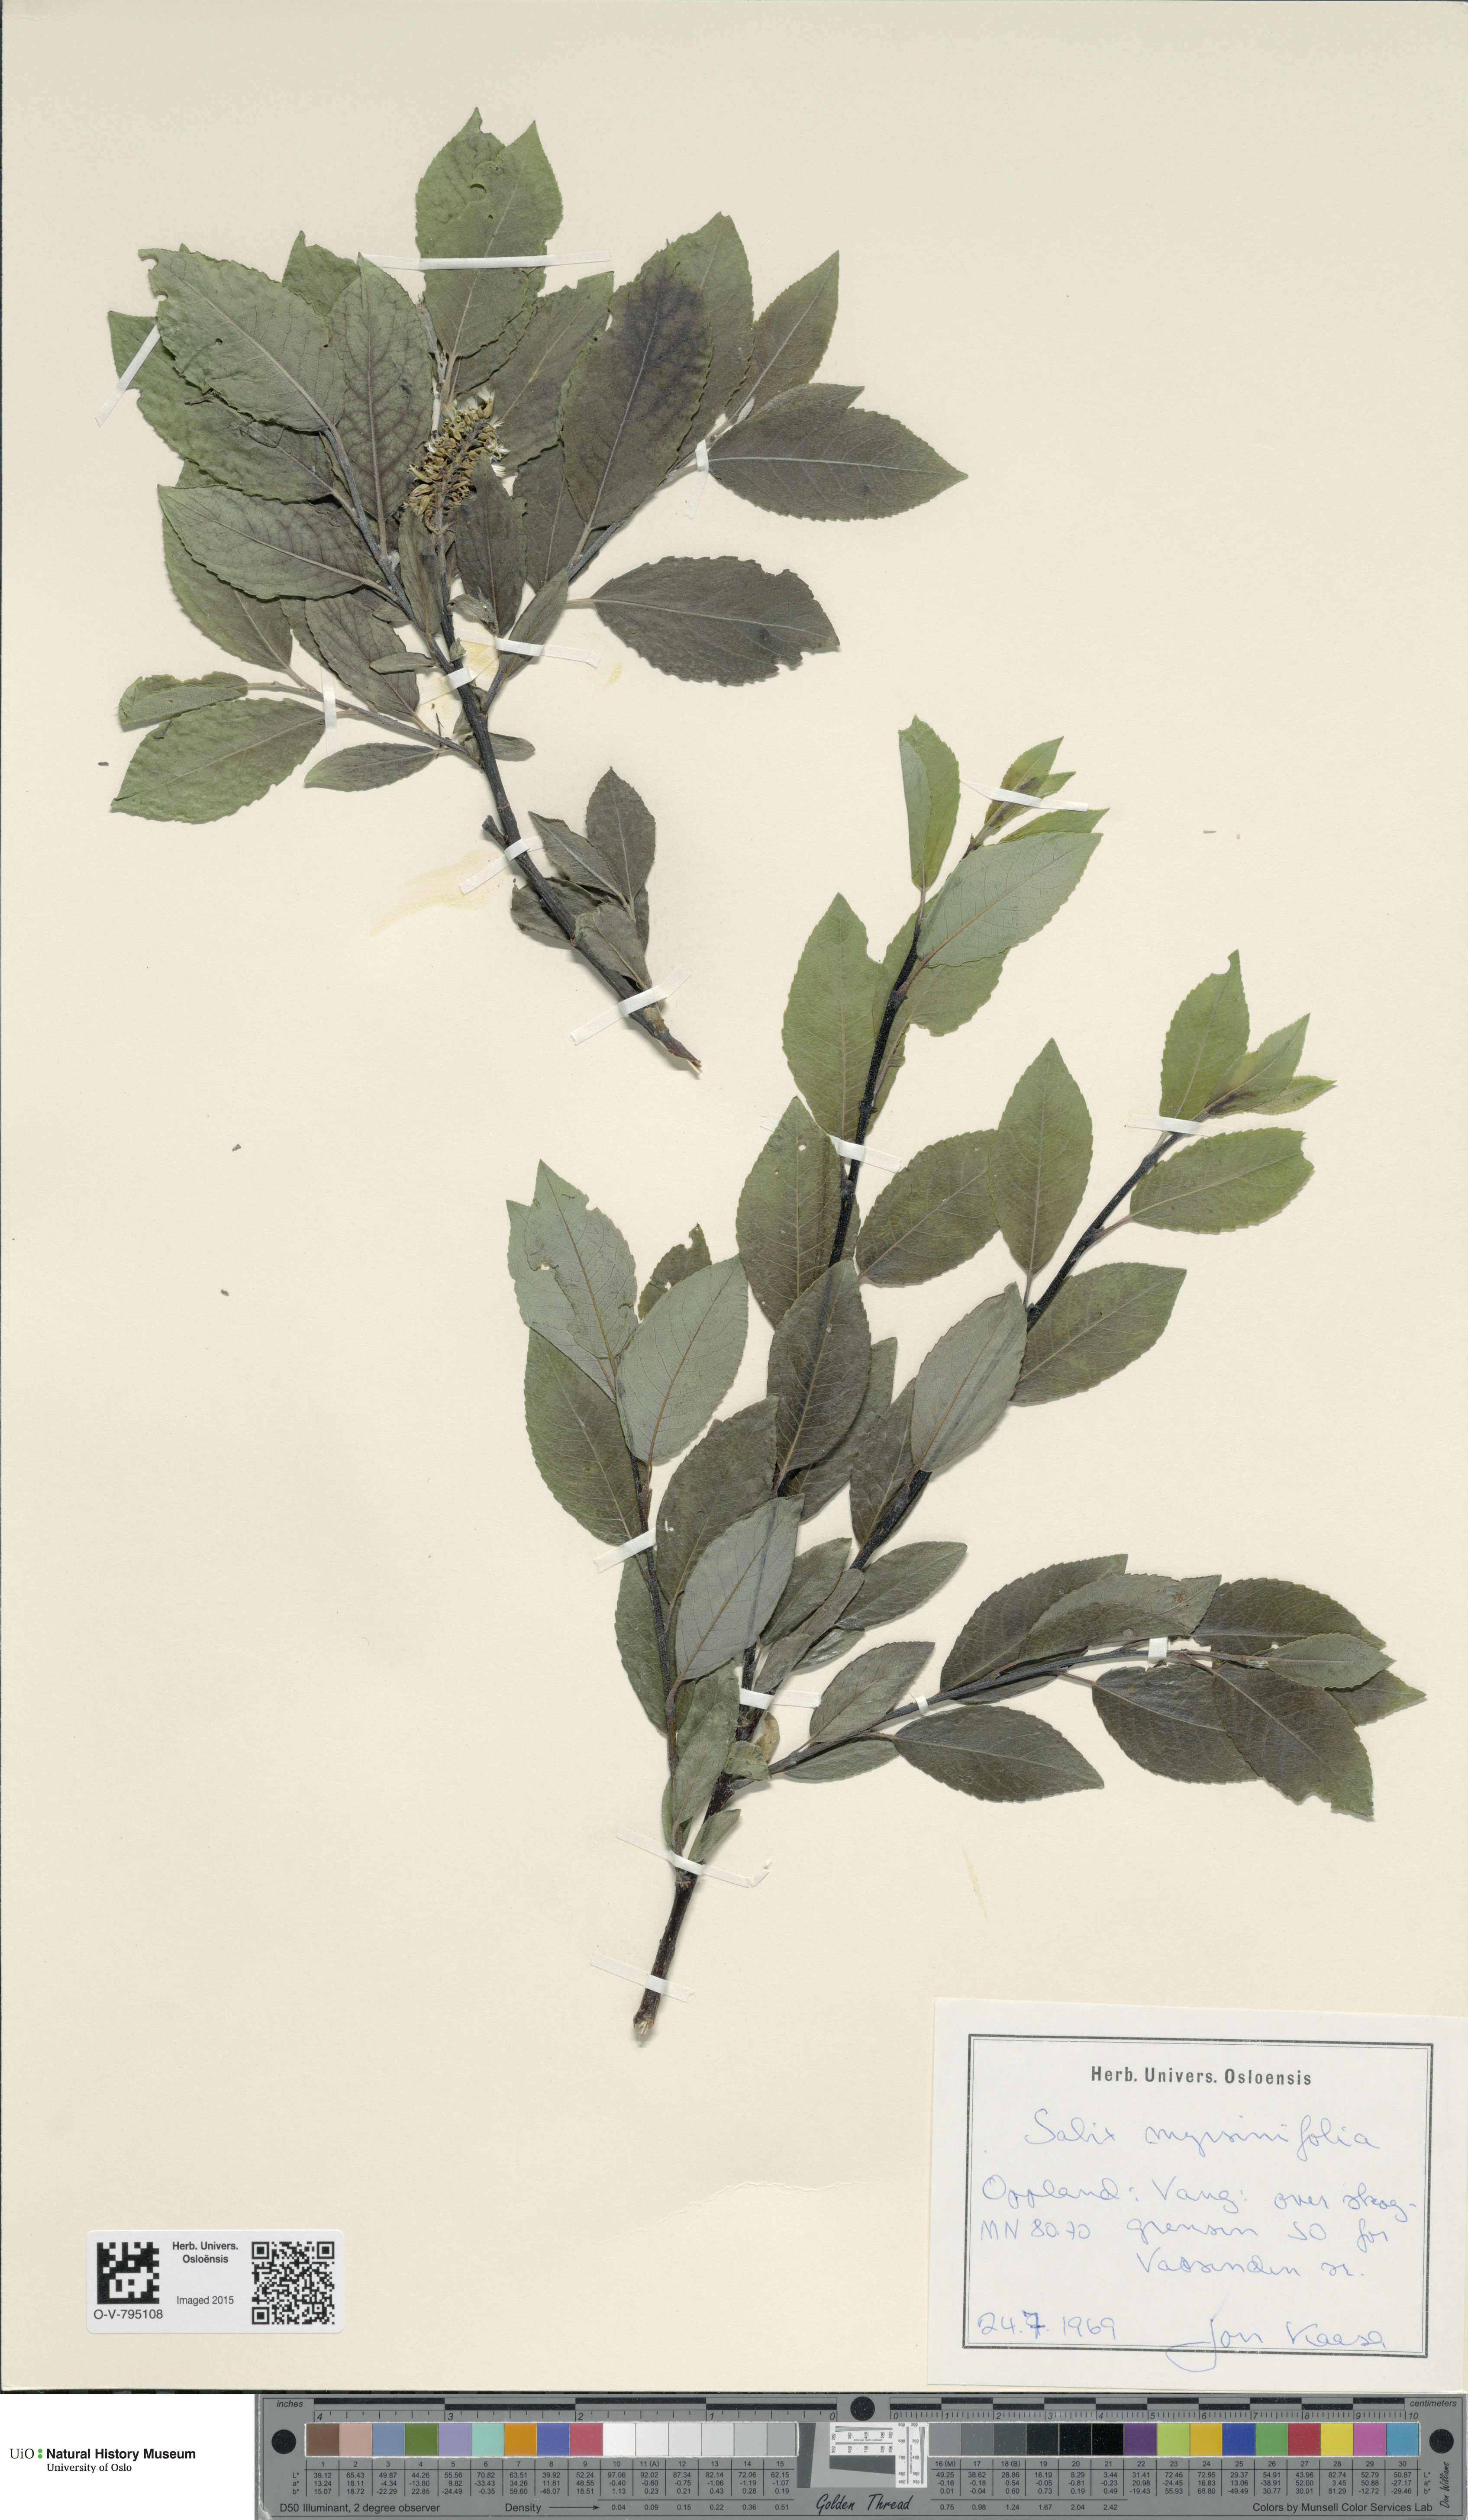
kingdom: Plantae
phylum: Tracheophyta
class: Magnoliopsida
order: Malpighiales
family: Salicaceae
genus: Salix
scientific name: Salix myrsinifolia
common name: Dark-leaved willow
